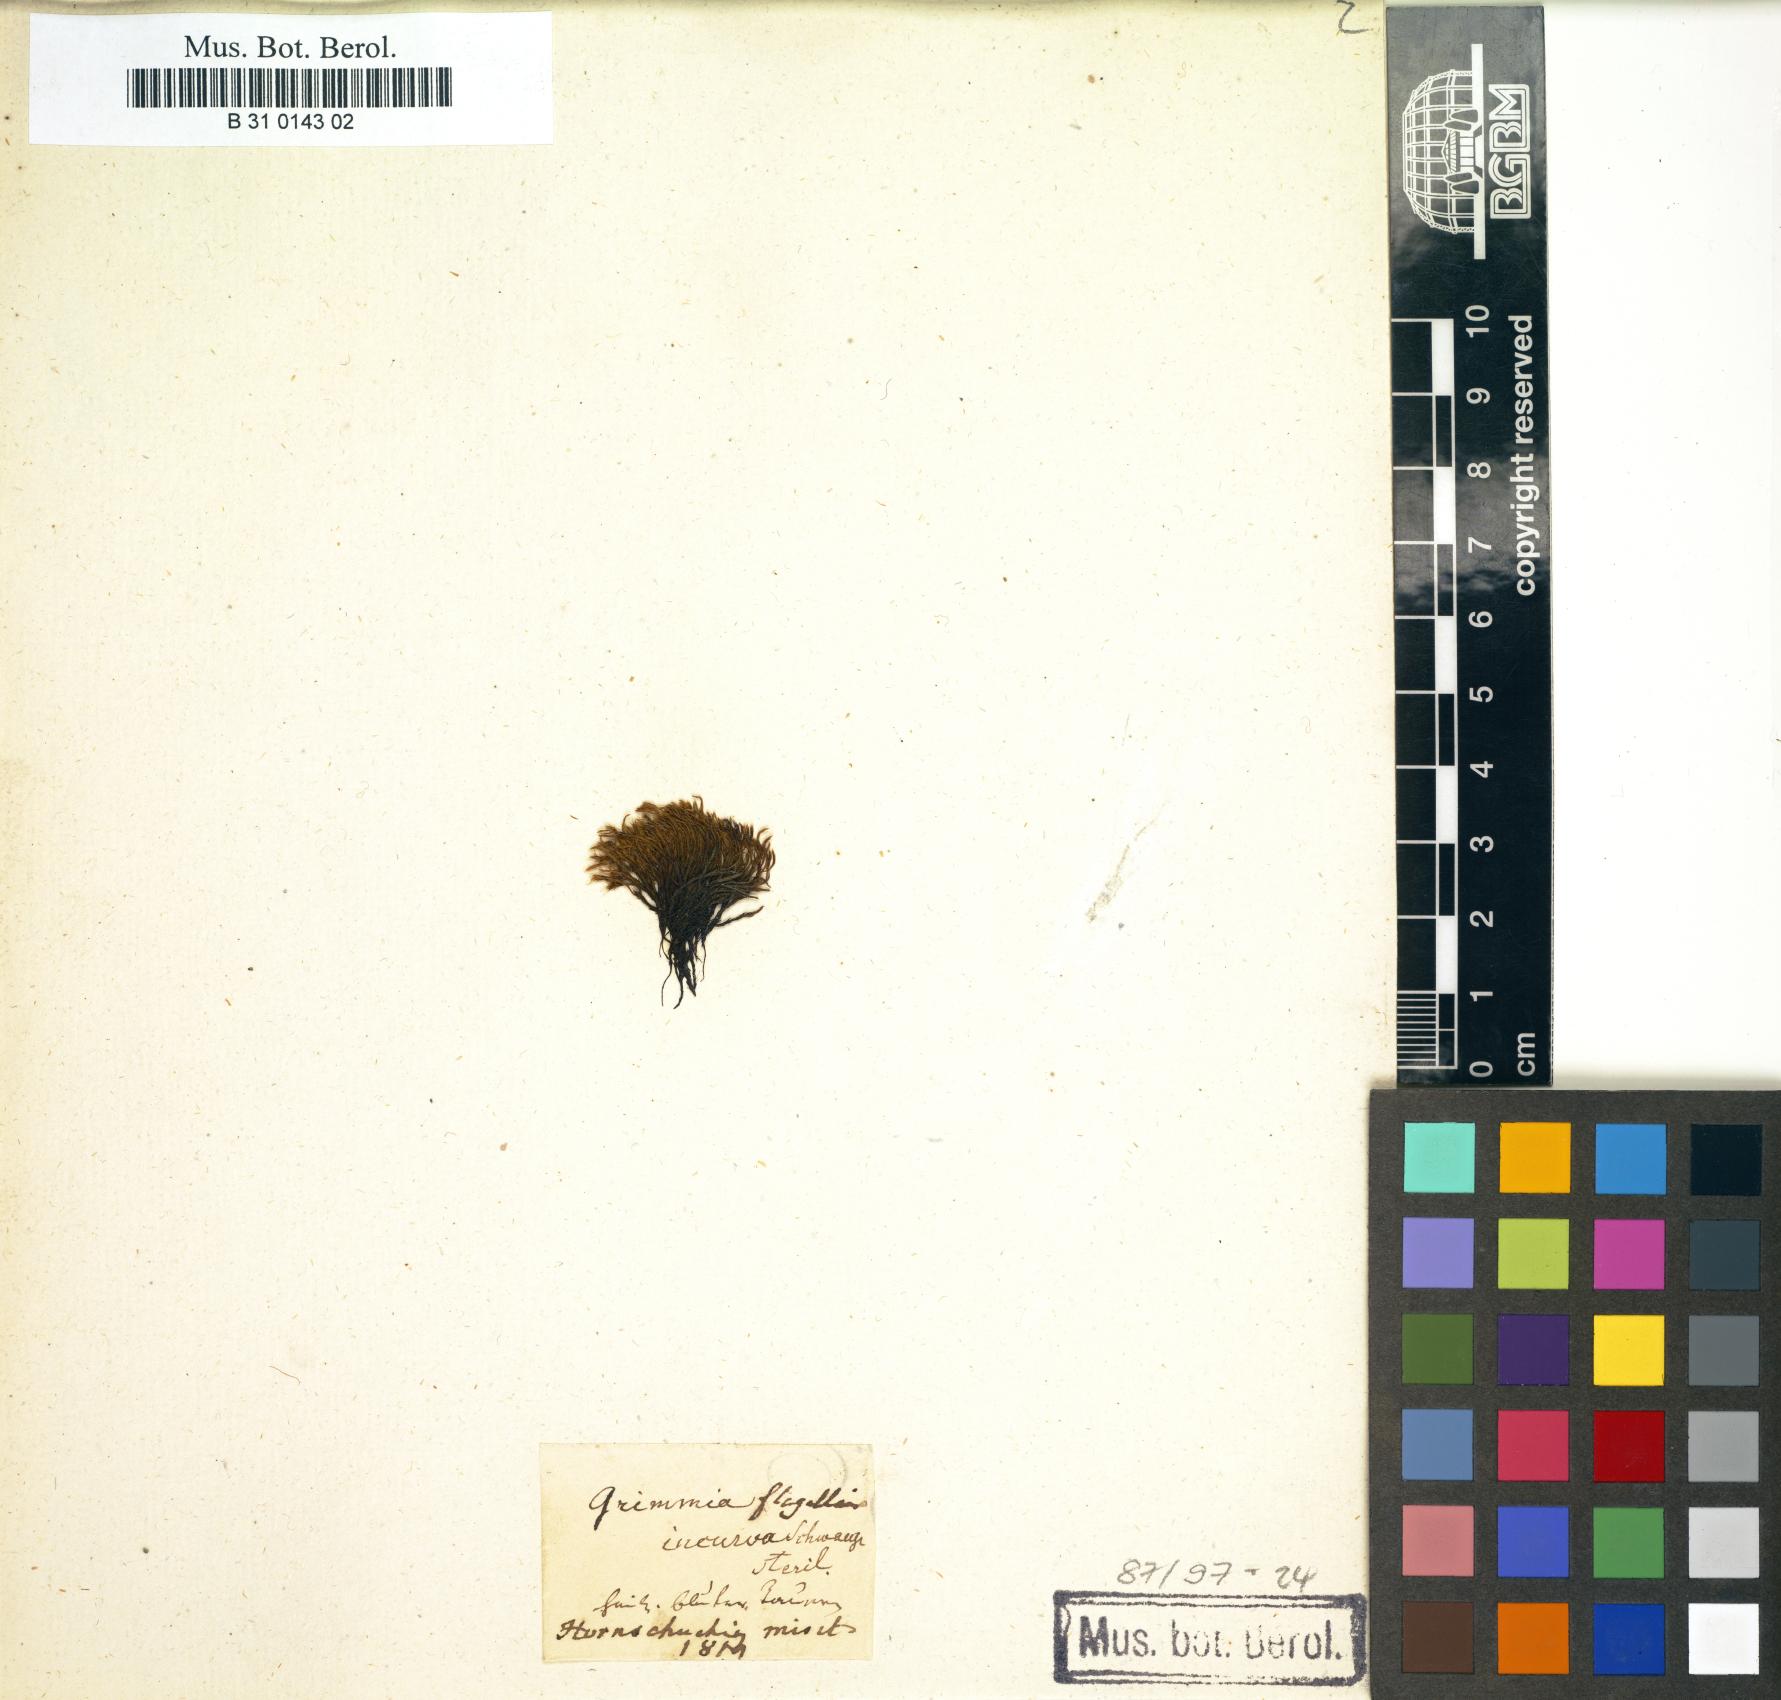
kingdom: Plantae
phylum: Bryophyta
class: Bryopsida
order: Grimmiales
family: Grimmiaceae
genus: Grimmia
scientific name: Grimmia incurva
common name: Black grimmia
